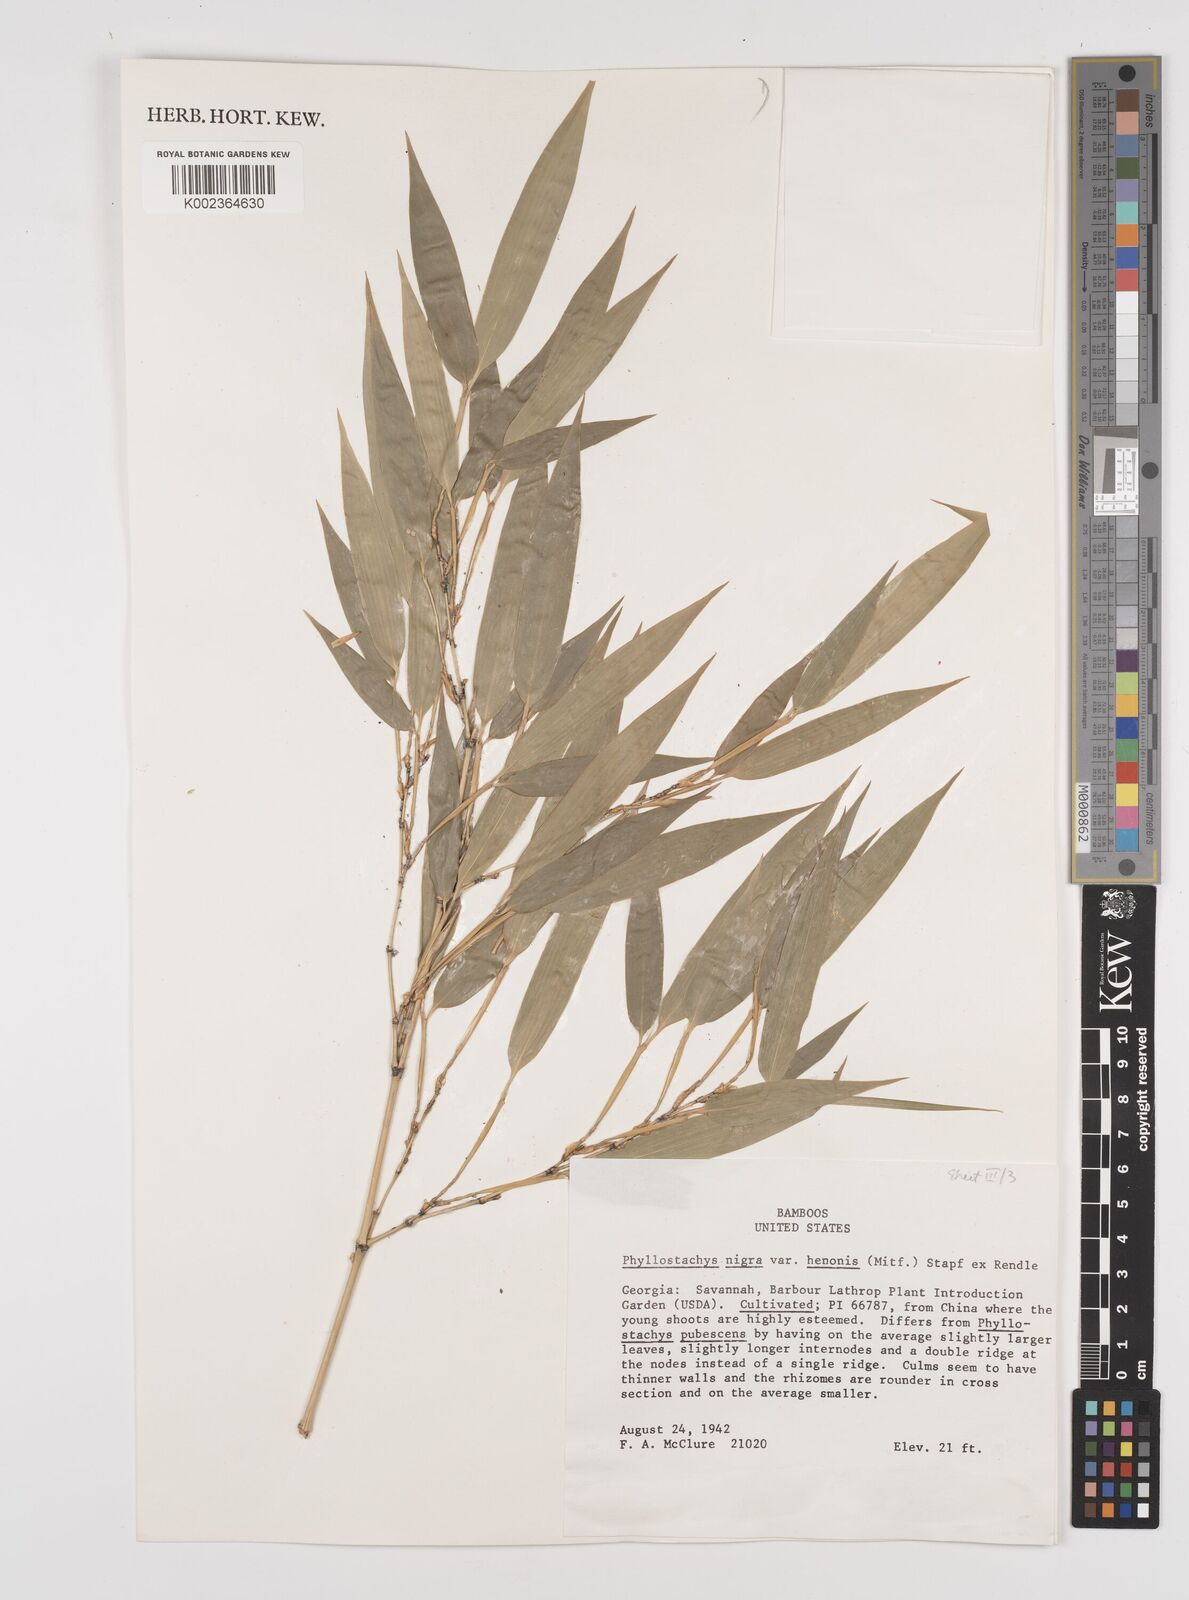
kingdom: Plantae
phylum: Tracheophyta
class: Liliopsida
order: Poales
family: Poaceae
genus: Phyllostachys
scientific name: Phyllostachys nigra
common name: Black bamboo
